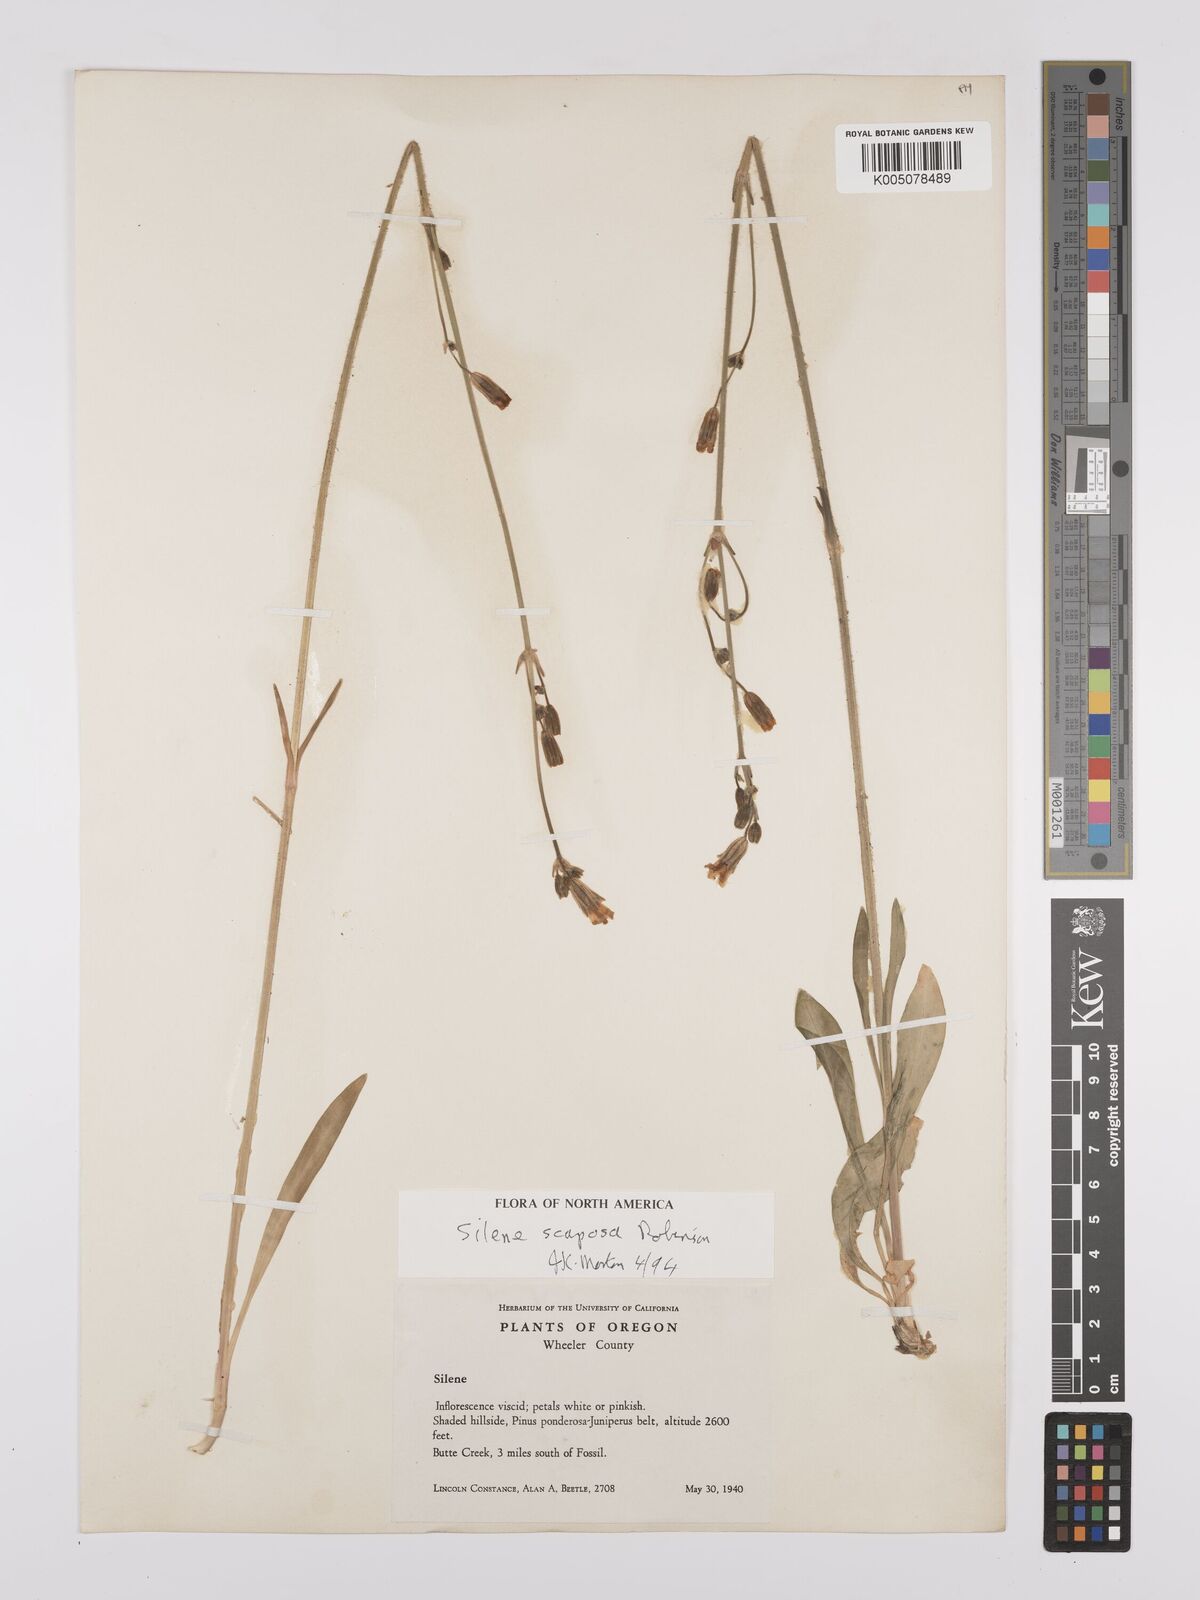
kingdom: Plantae
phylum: Tracheophyta
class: Magnoliopsida
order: Caryophyllales
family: Caryophyllaceae
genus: Silene
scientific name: Silene
